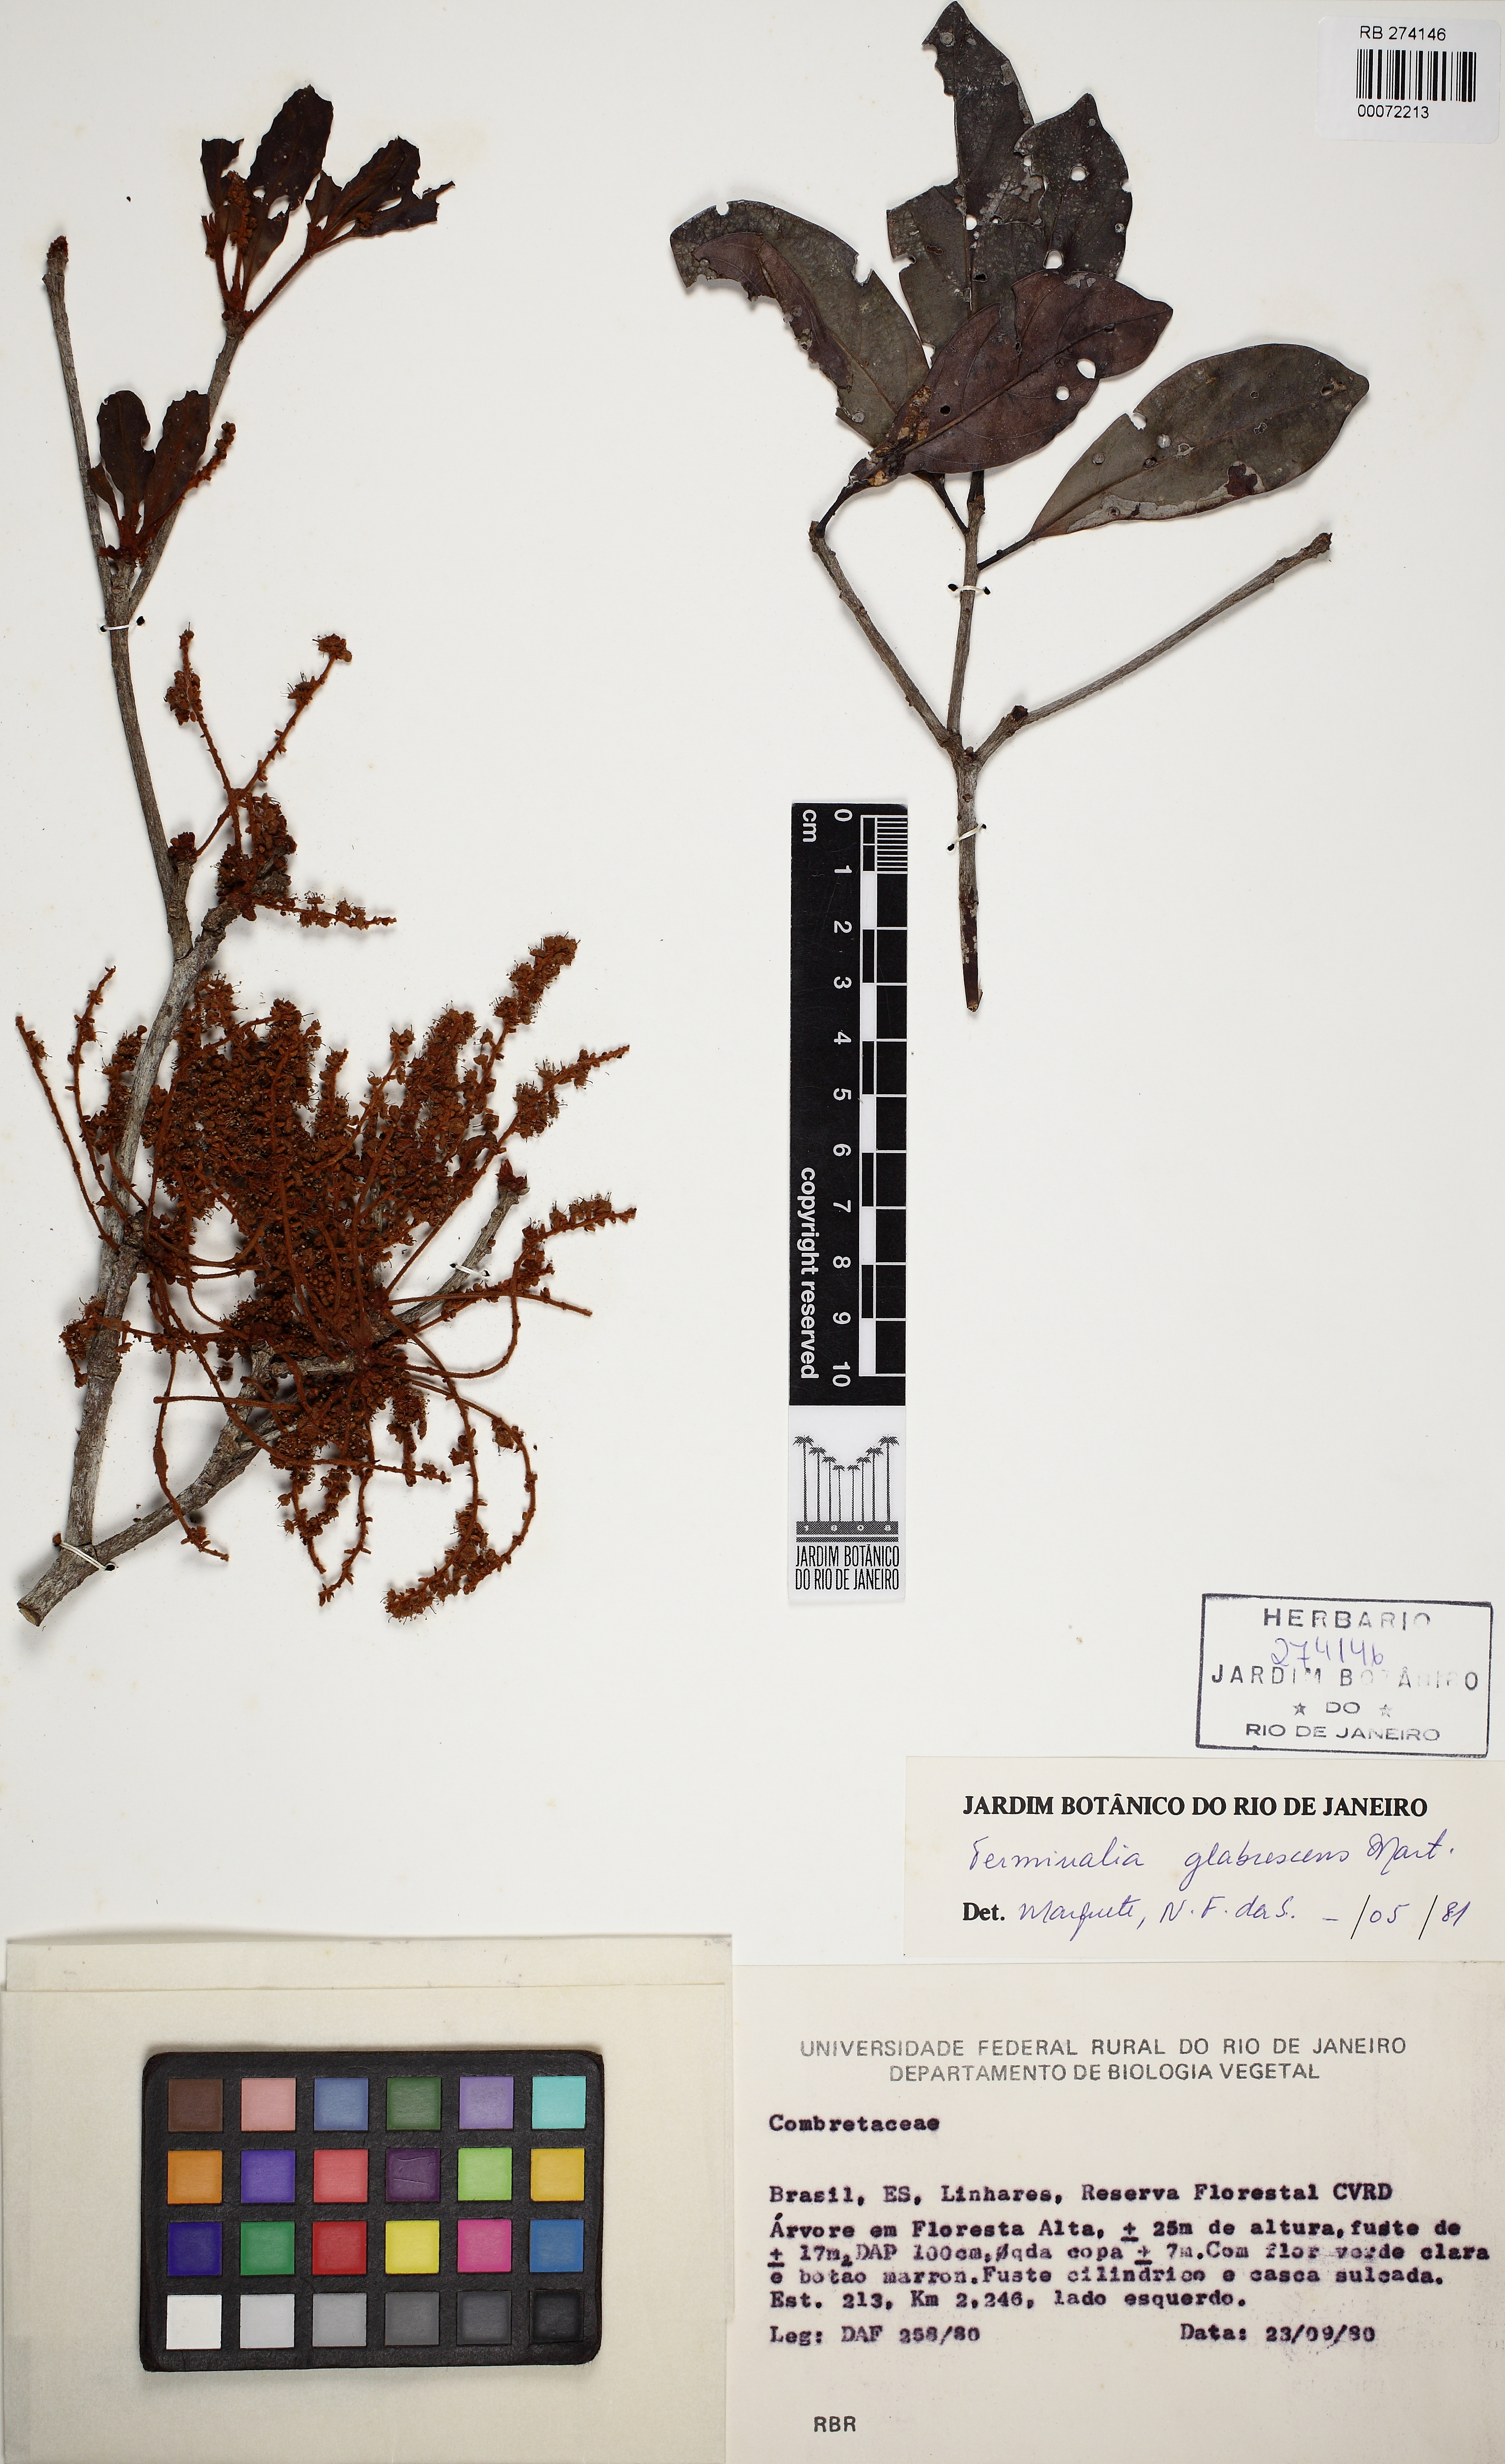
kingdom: Plantae
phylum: Tracheophyta
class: Magnoliopsida
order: Myrtales
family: Combretaceae
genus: Terminalia
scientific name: Terminalia glabrescens
